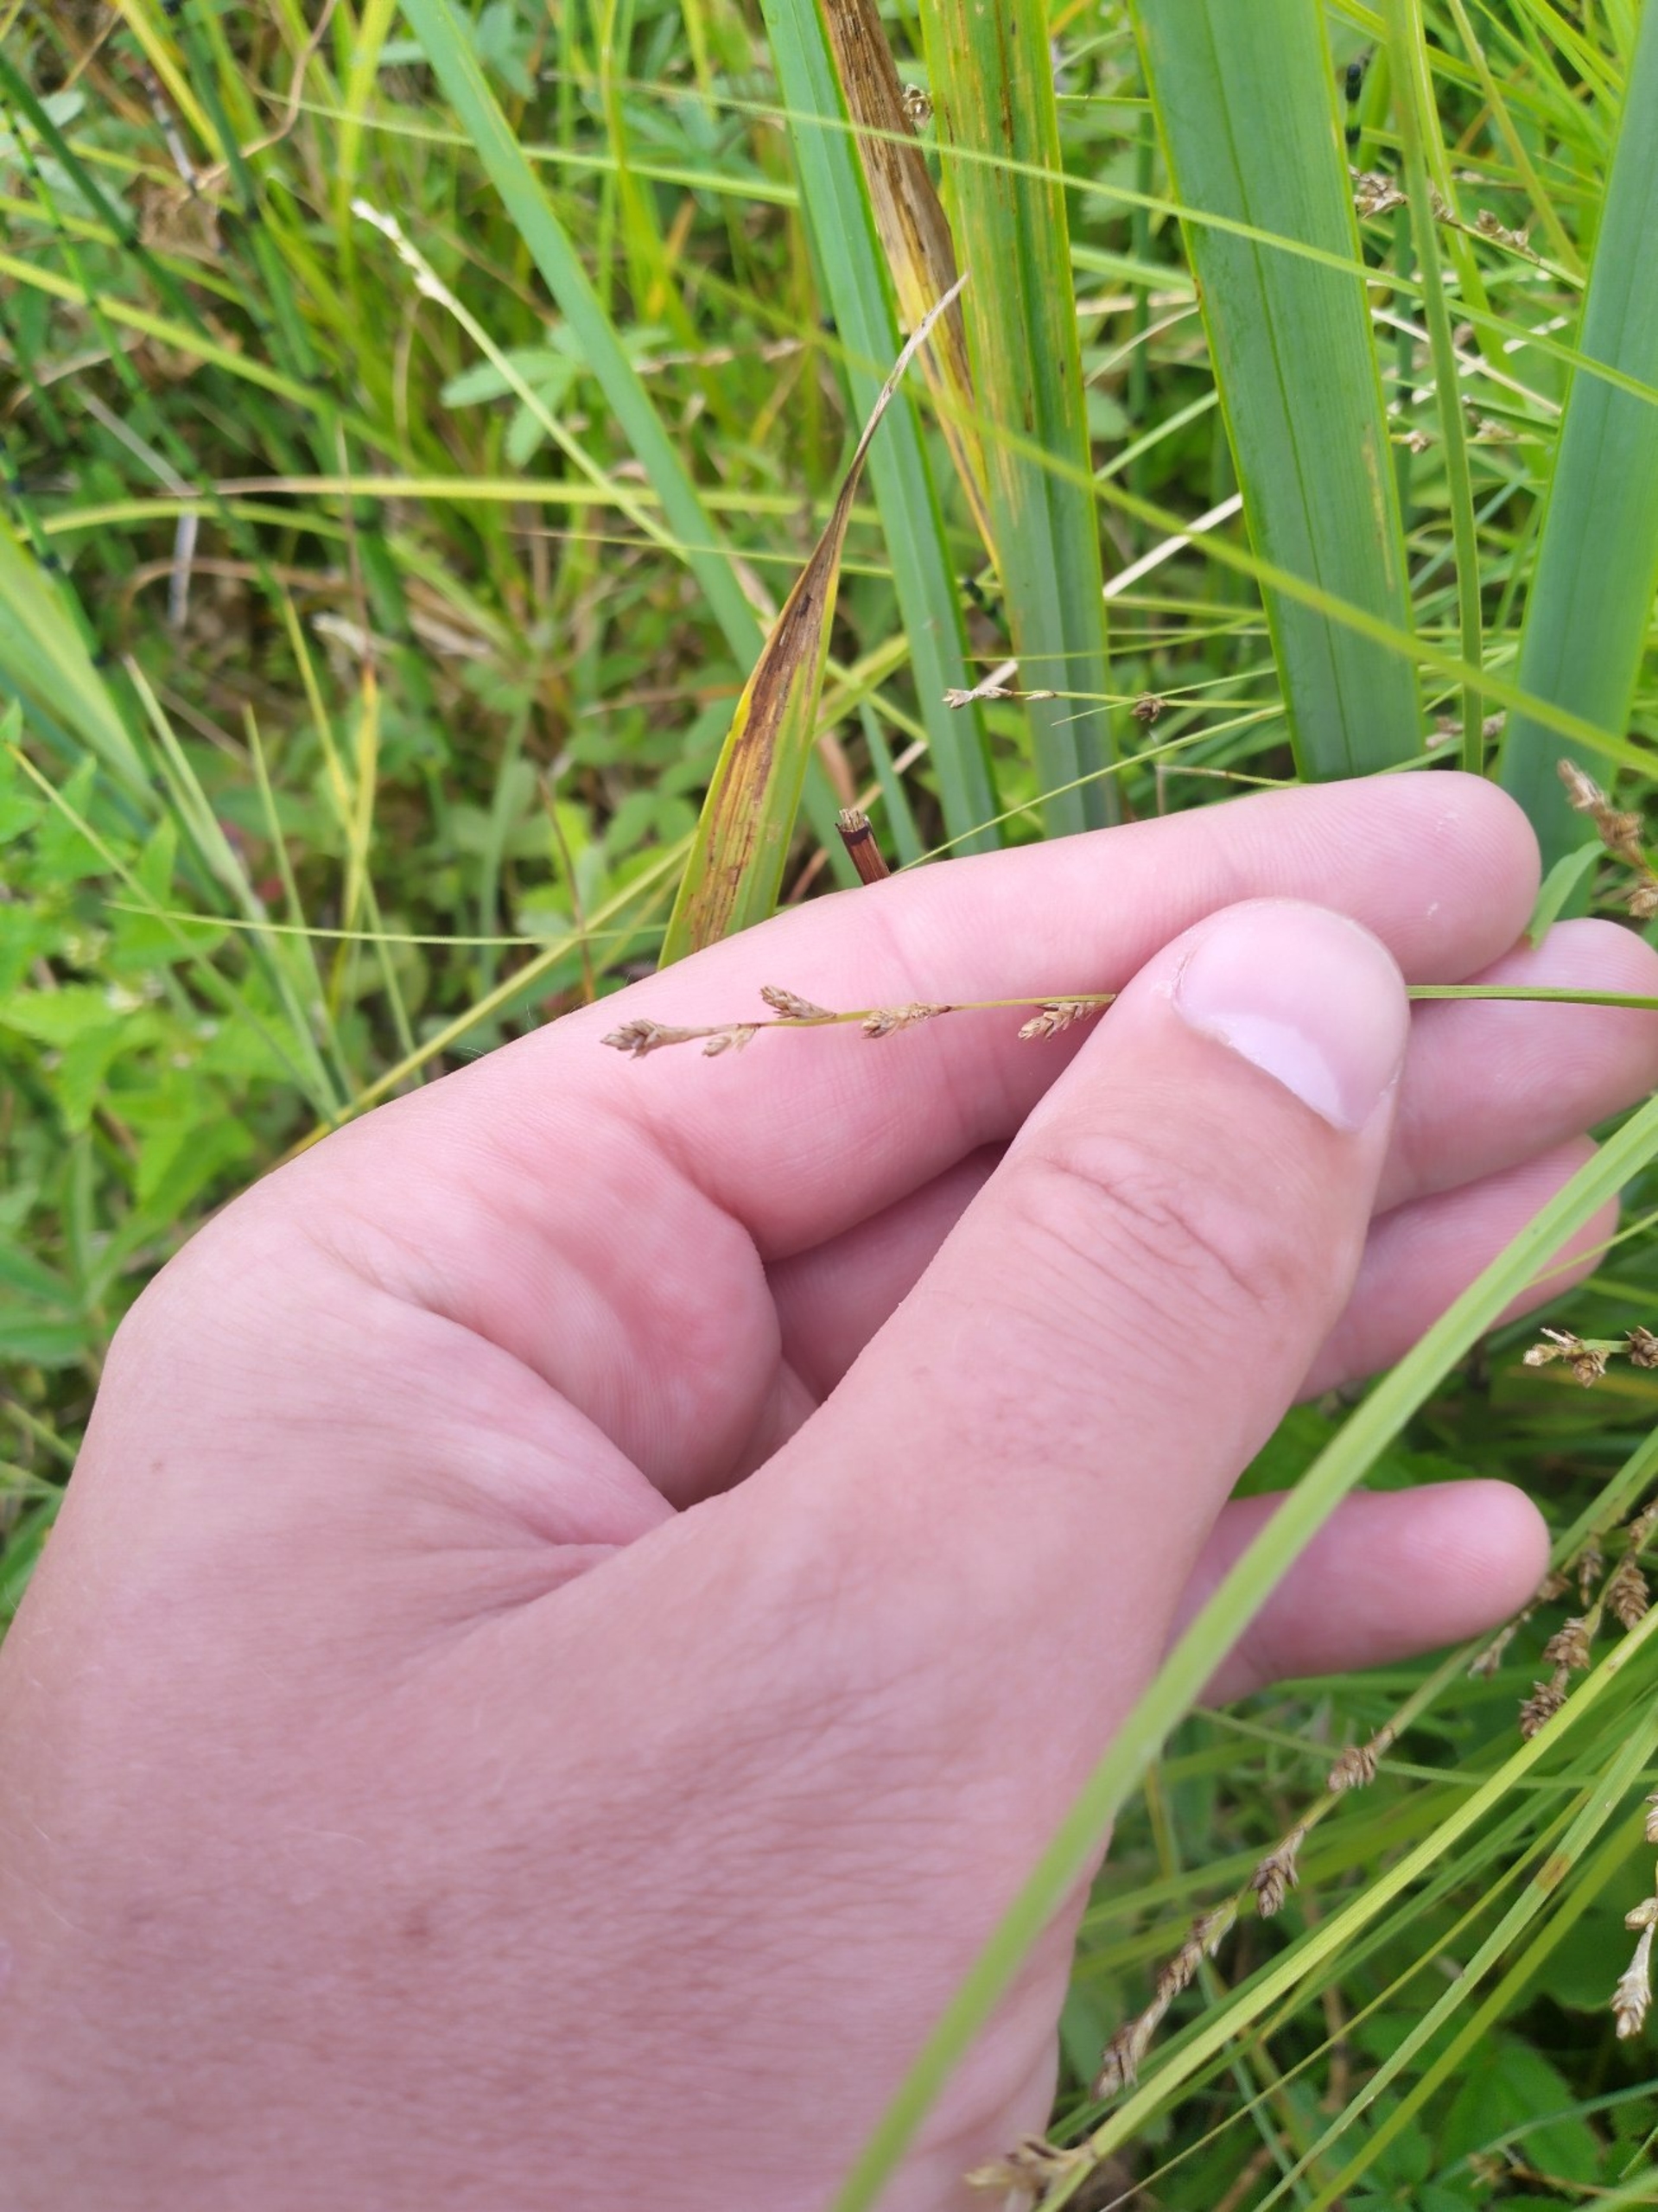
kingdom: Plantae
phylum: Tracheophyta
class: Liliopsida
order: Poales
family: Cyperaceae
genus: Carex
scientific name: Carex canescens
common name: Grå star
